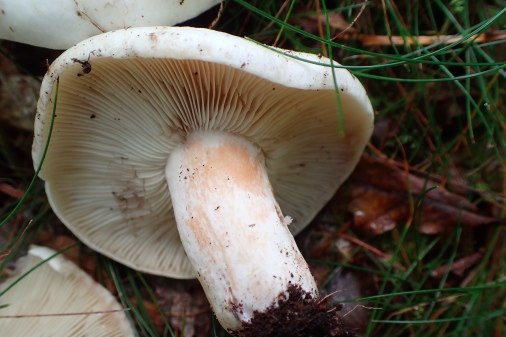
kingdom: Fungi
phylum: Basidiomycota
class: Agaricomycetes
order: Russulales
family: Russulaceae
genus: Russula
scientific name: Russula densifolia
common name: tætbladet skørhat
